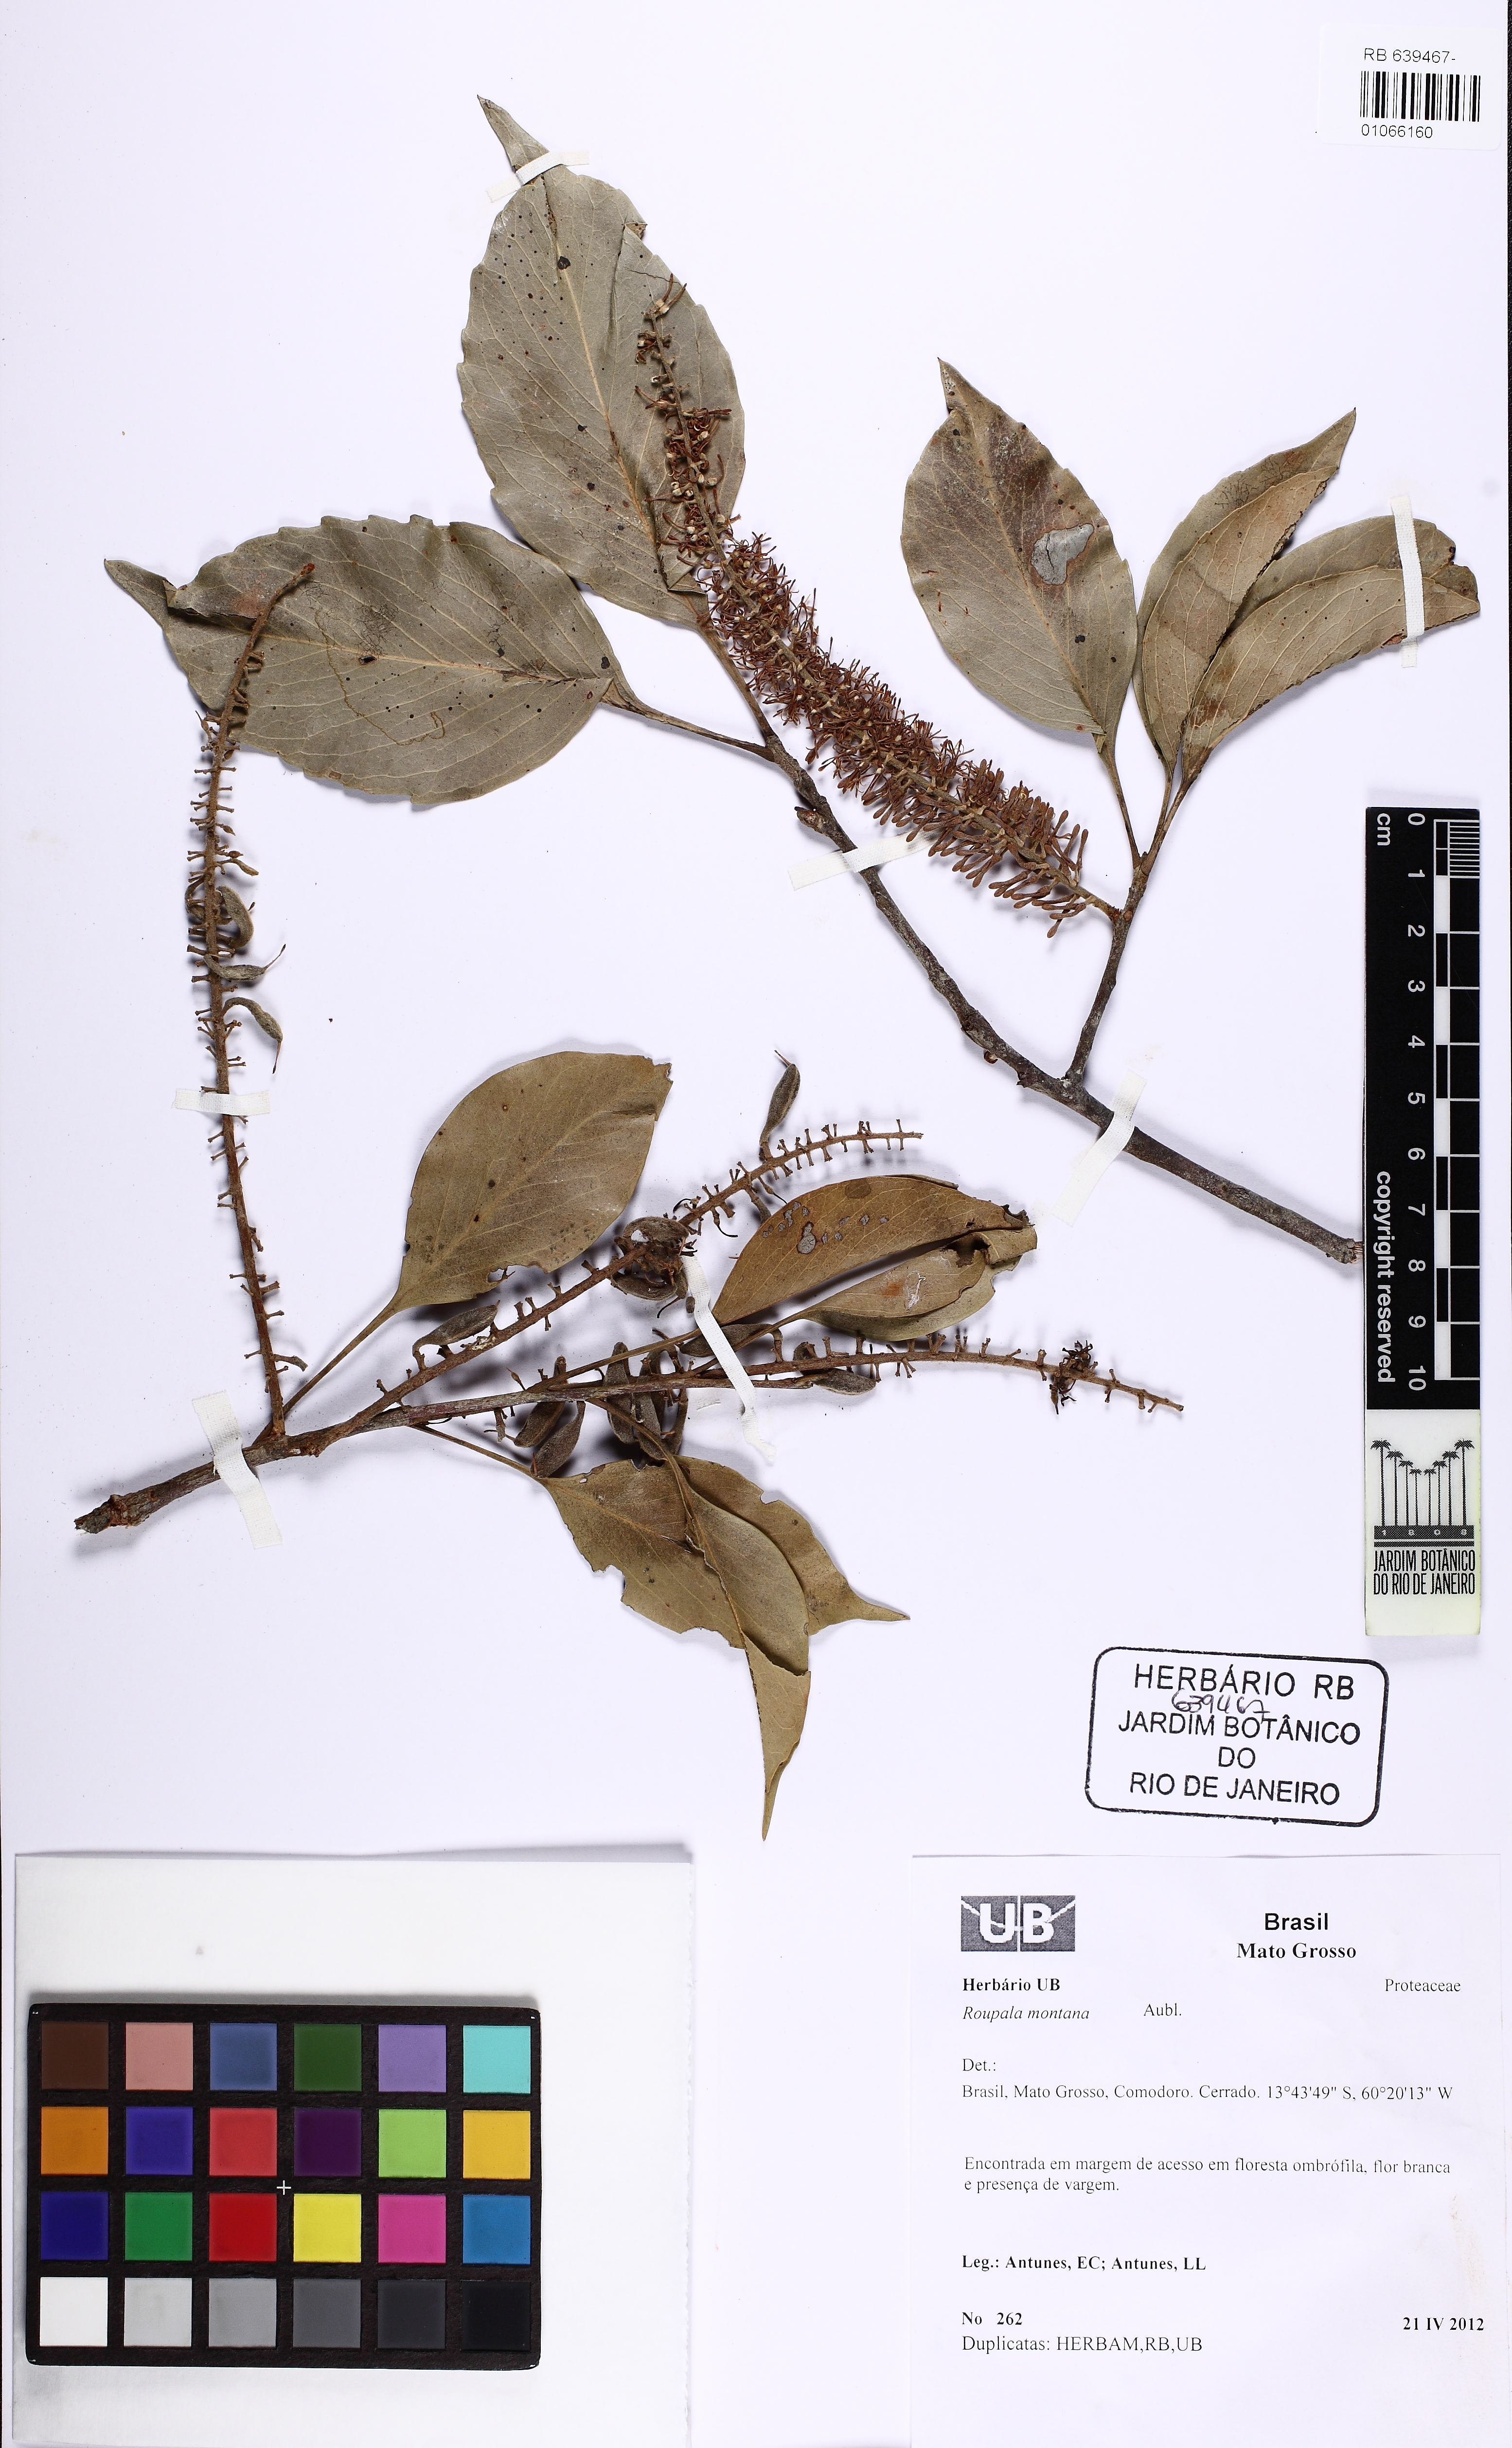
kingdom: Plantae
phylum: Tracheophyta
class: Magnoliopsida
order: Proteales
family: Proteaceae
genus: Roupala
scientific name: Roupala montana
